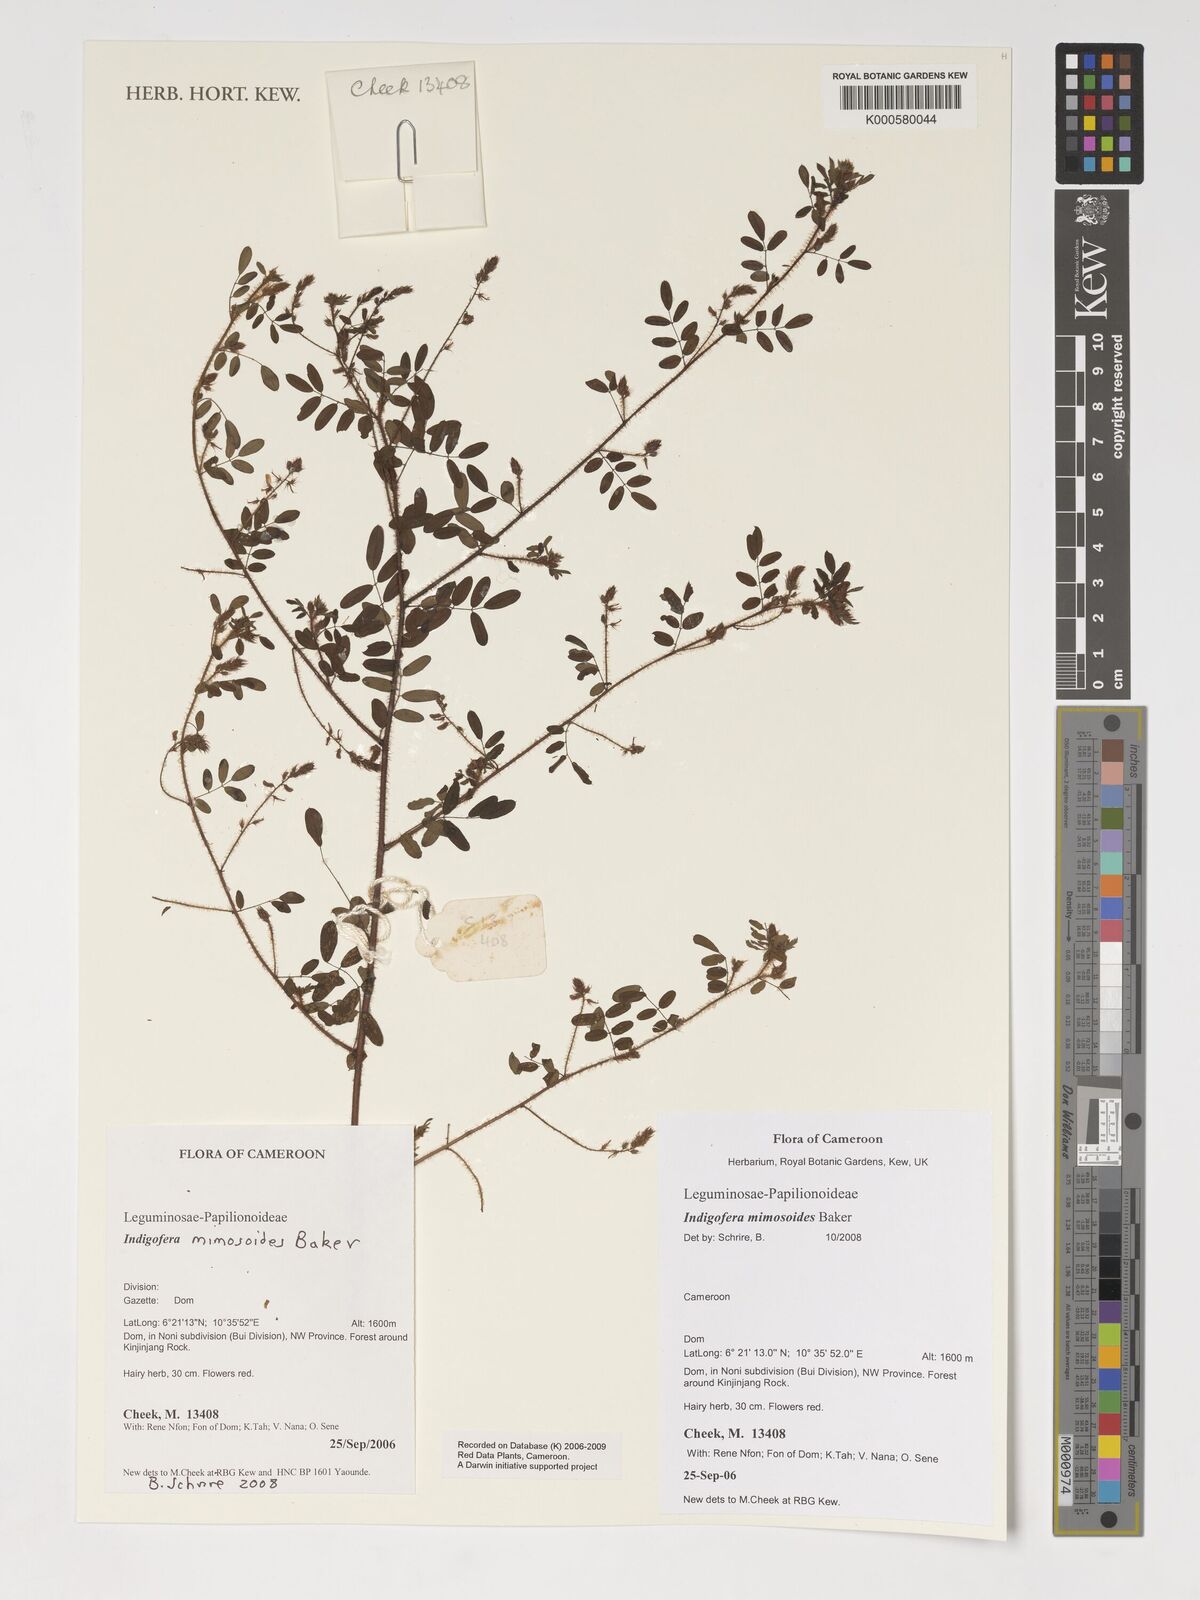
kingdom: Plantae
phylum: Tracheophyta
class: Magnoliopsida
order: Fabales
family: Fabaceae
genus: Indigofera
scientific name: Indigofera mimosoides
